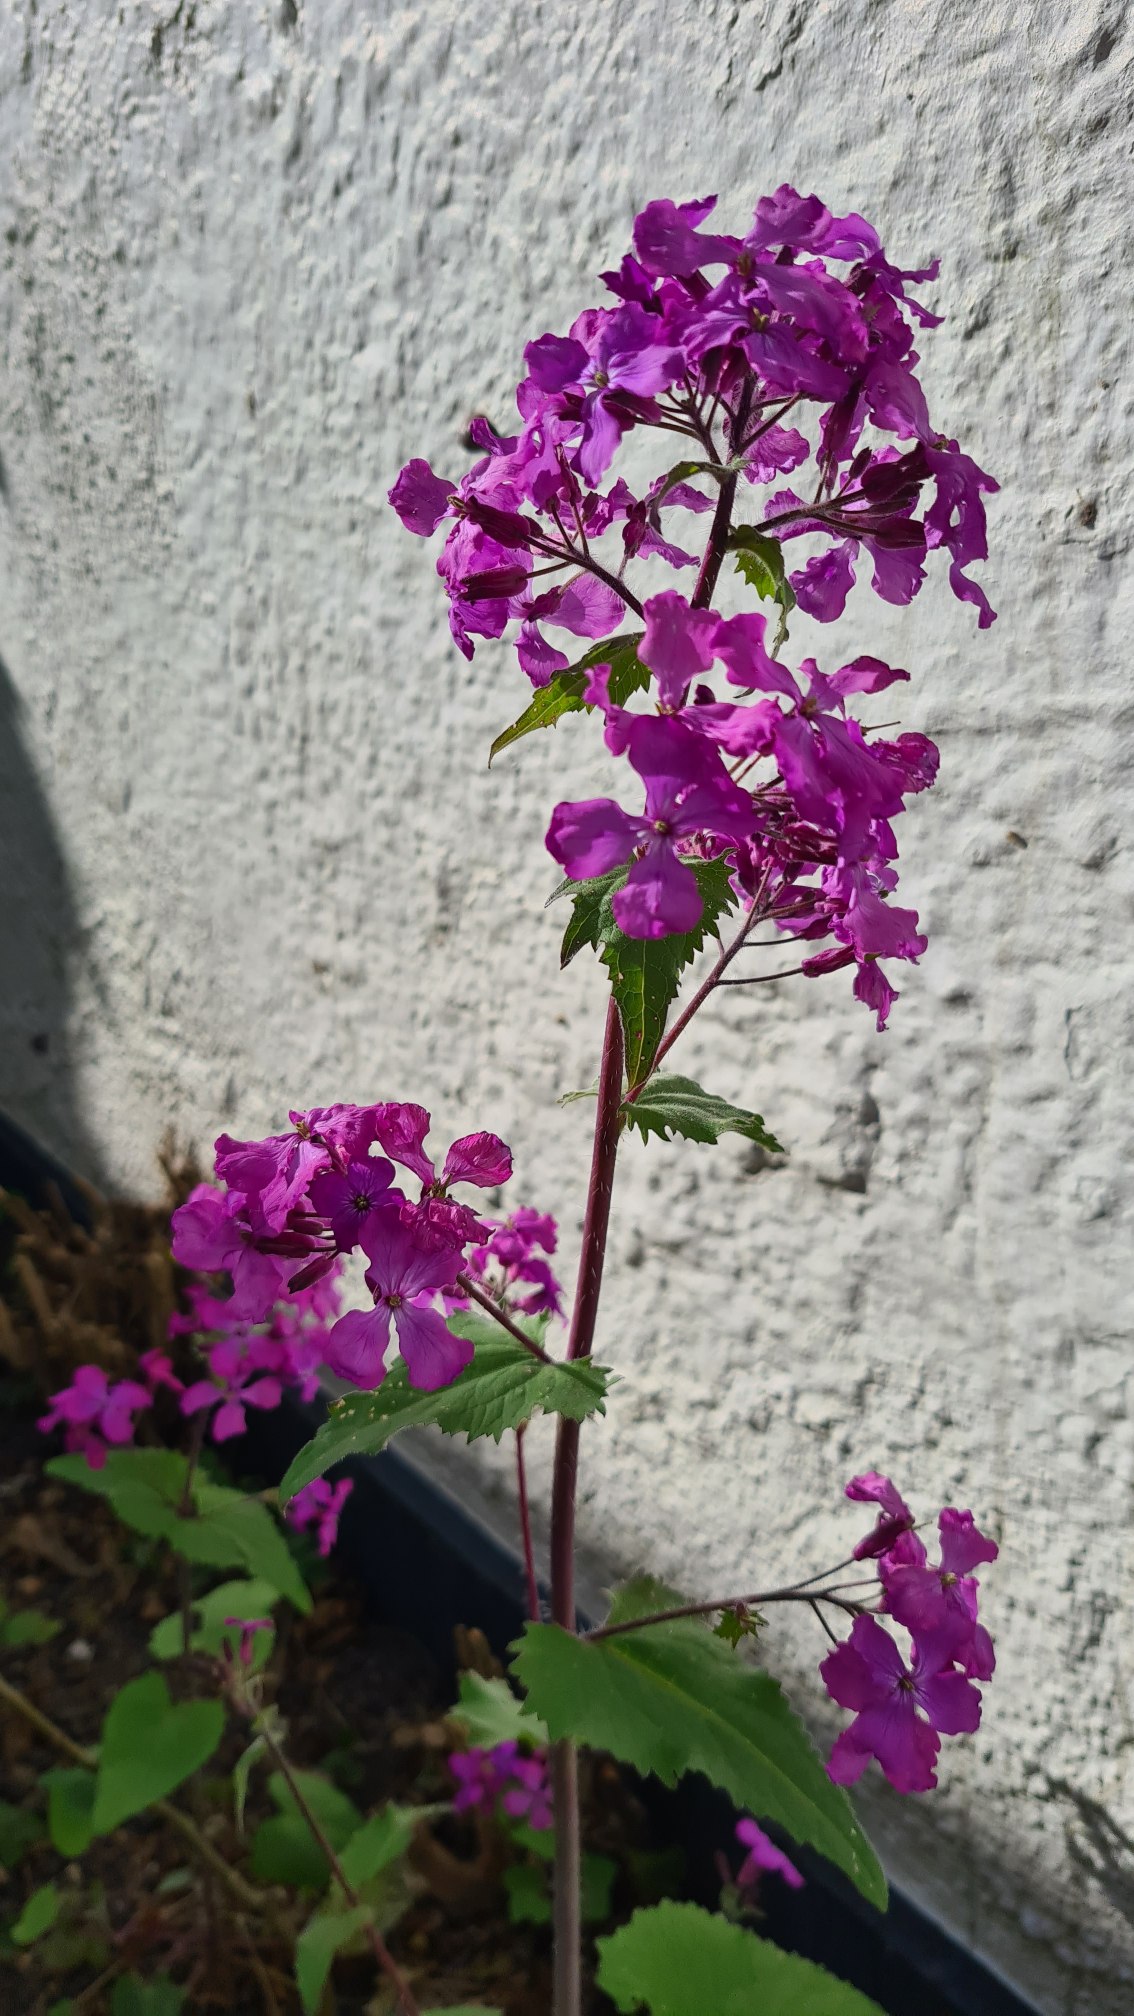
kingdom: Plantae
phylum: Tracheophyta
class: Magnoliopsida
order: Brassicales
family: Brassicaceae
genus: Lunaria
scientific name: Lunaria annua
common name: Judaspenge
